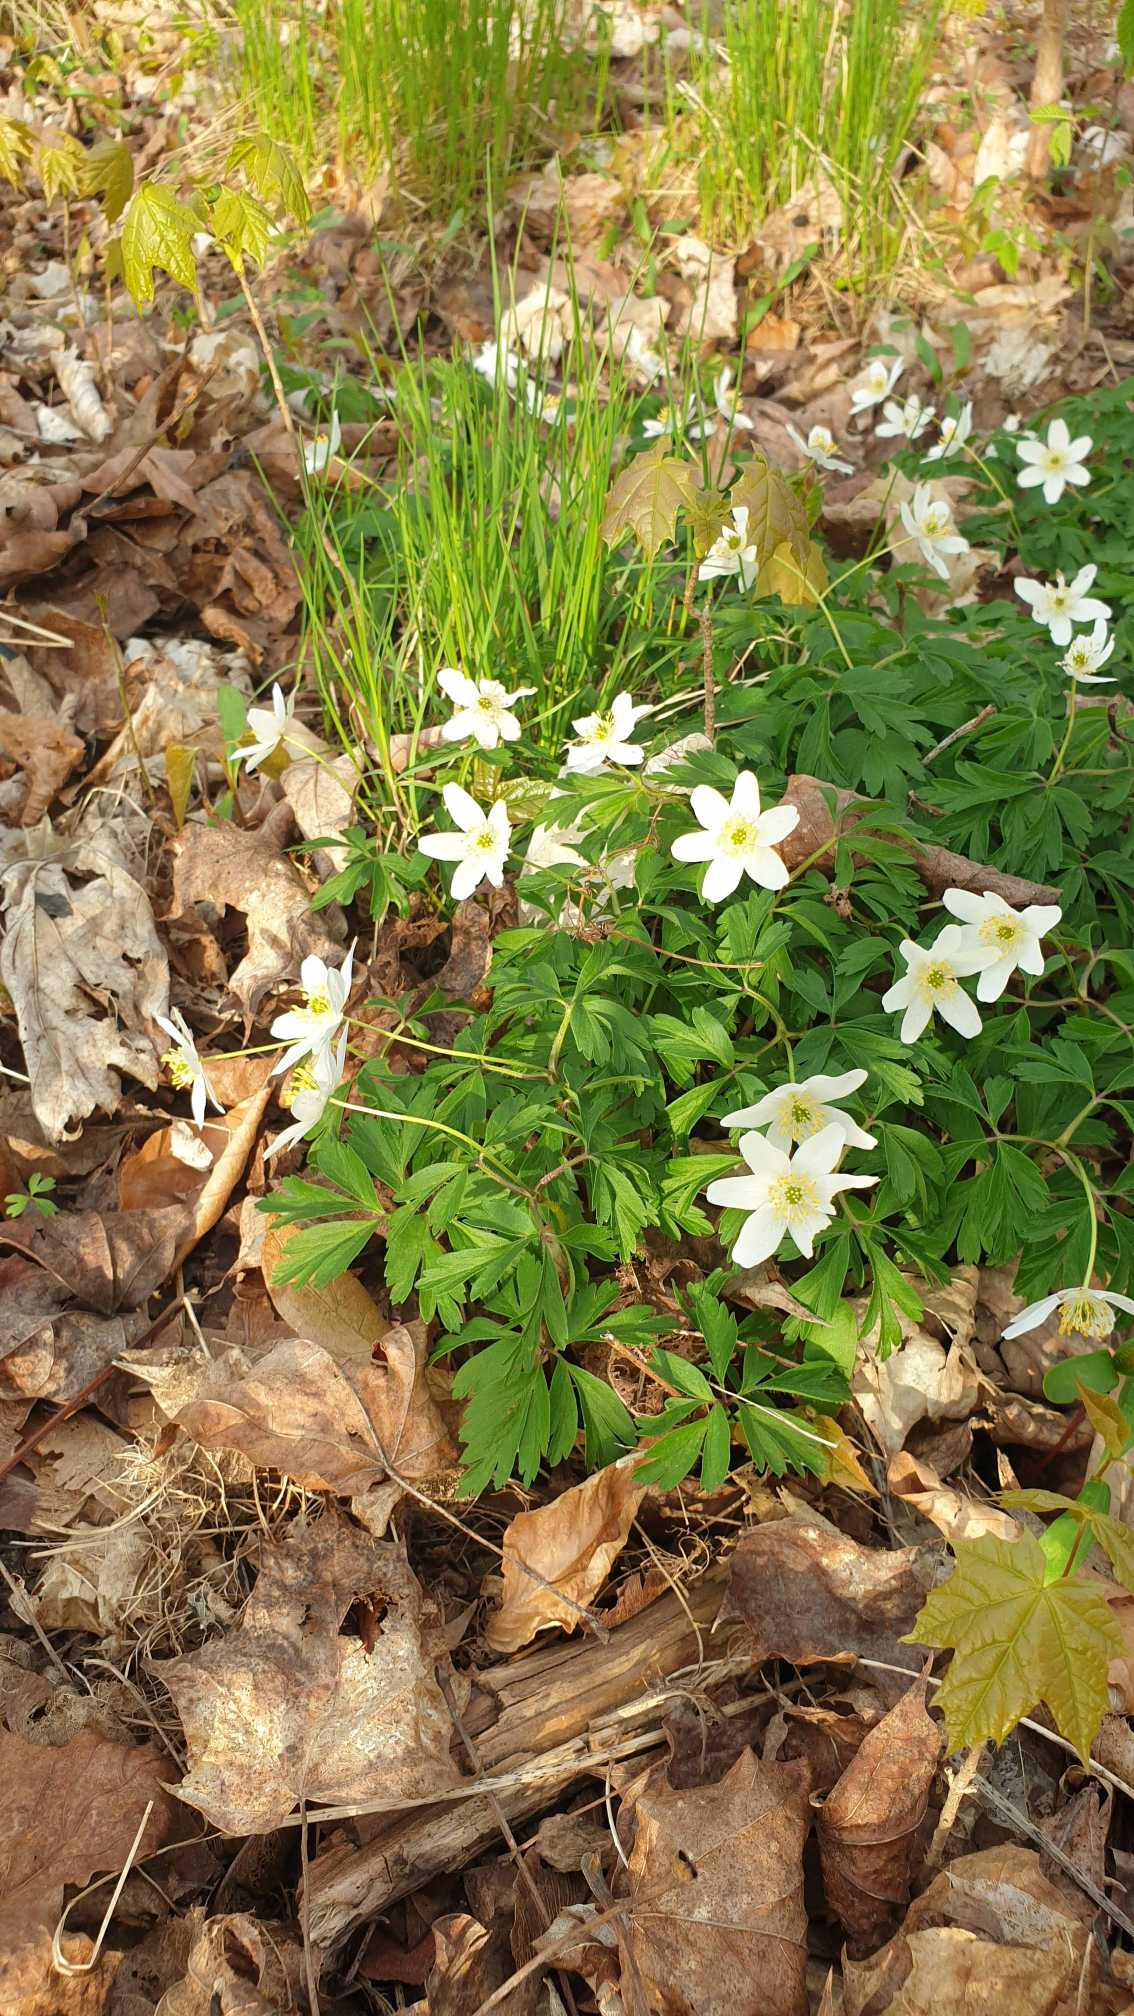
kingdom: Plantae
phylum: Tracheophyta
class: Magnoliopsida
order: Ranunculales
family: Ranunculaceae
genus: Anemone
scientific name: Anemone nemorosa
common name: Hvid anemone
